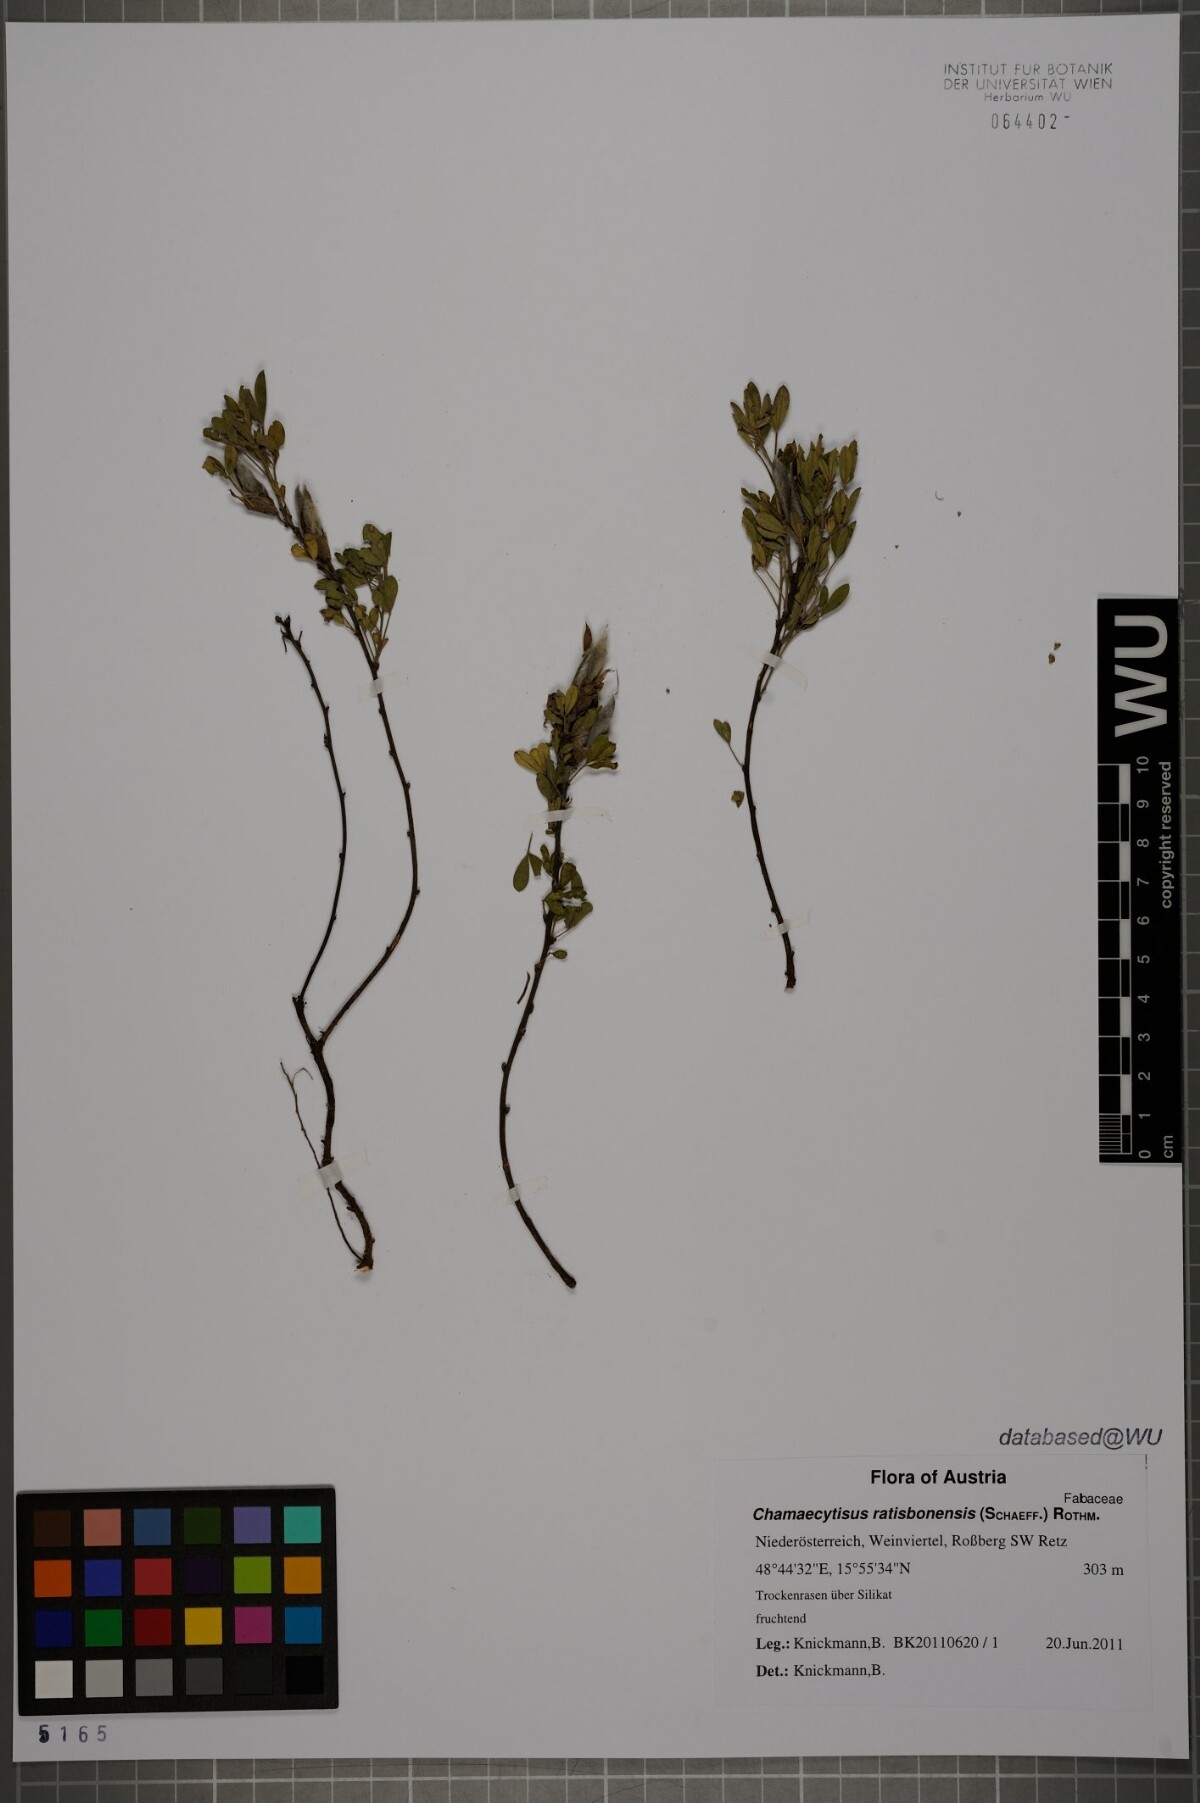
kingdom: Plantae
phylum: Tracheophyta
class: Magnoliopsida
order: Fabales
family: Fabaceae
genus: Chamaecytisus
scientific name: Chamaecytisus ratisbonensis
